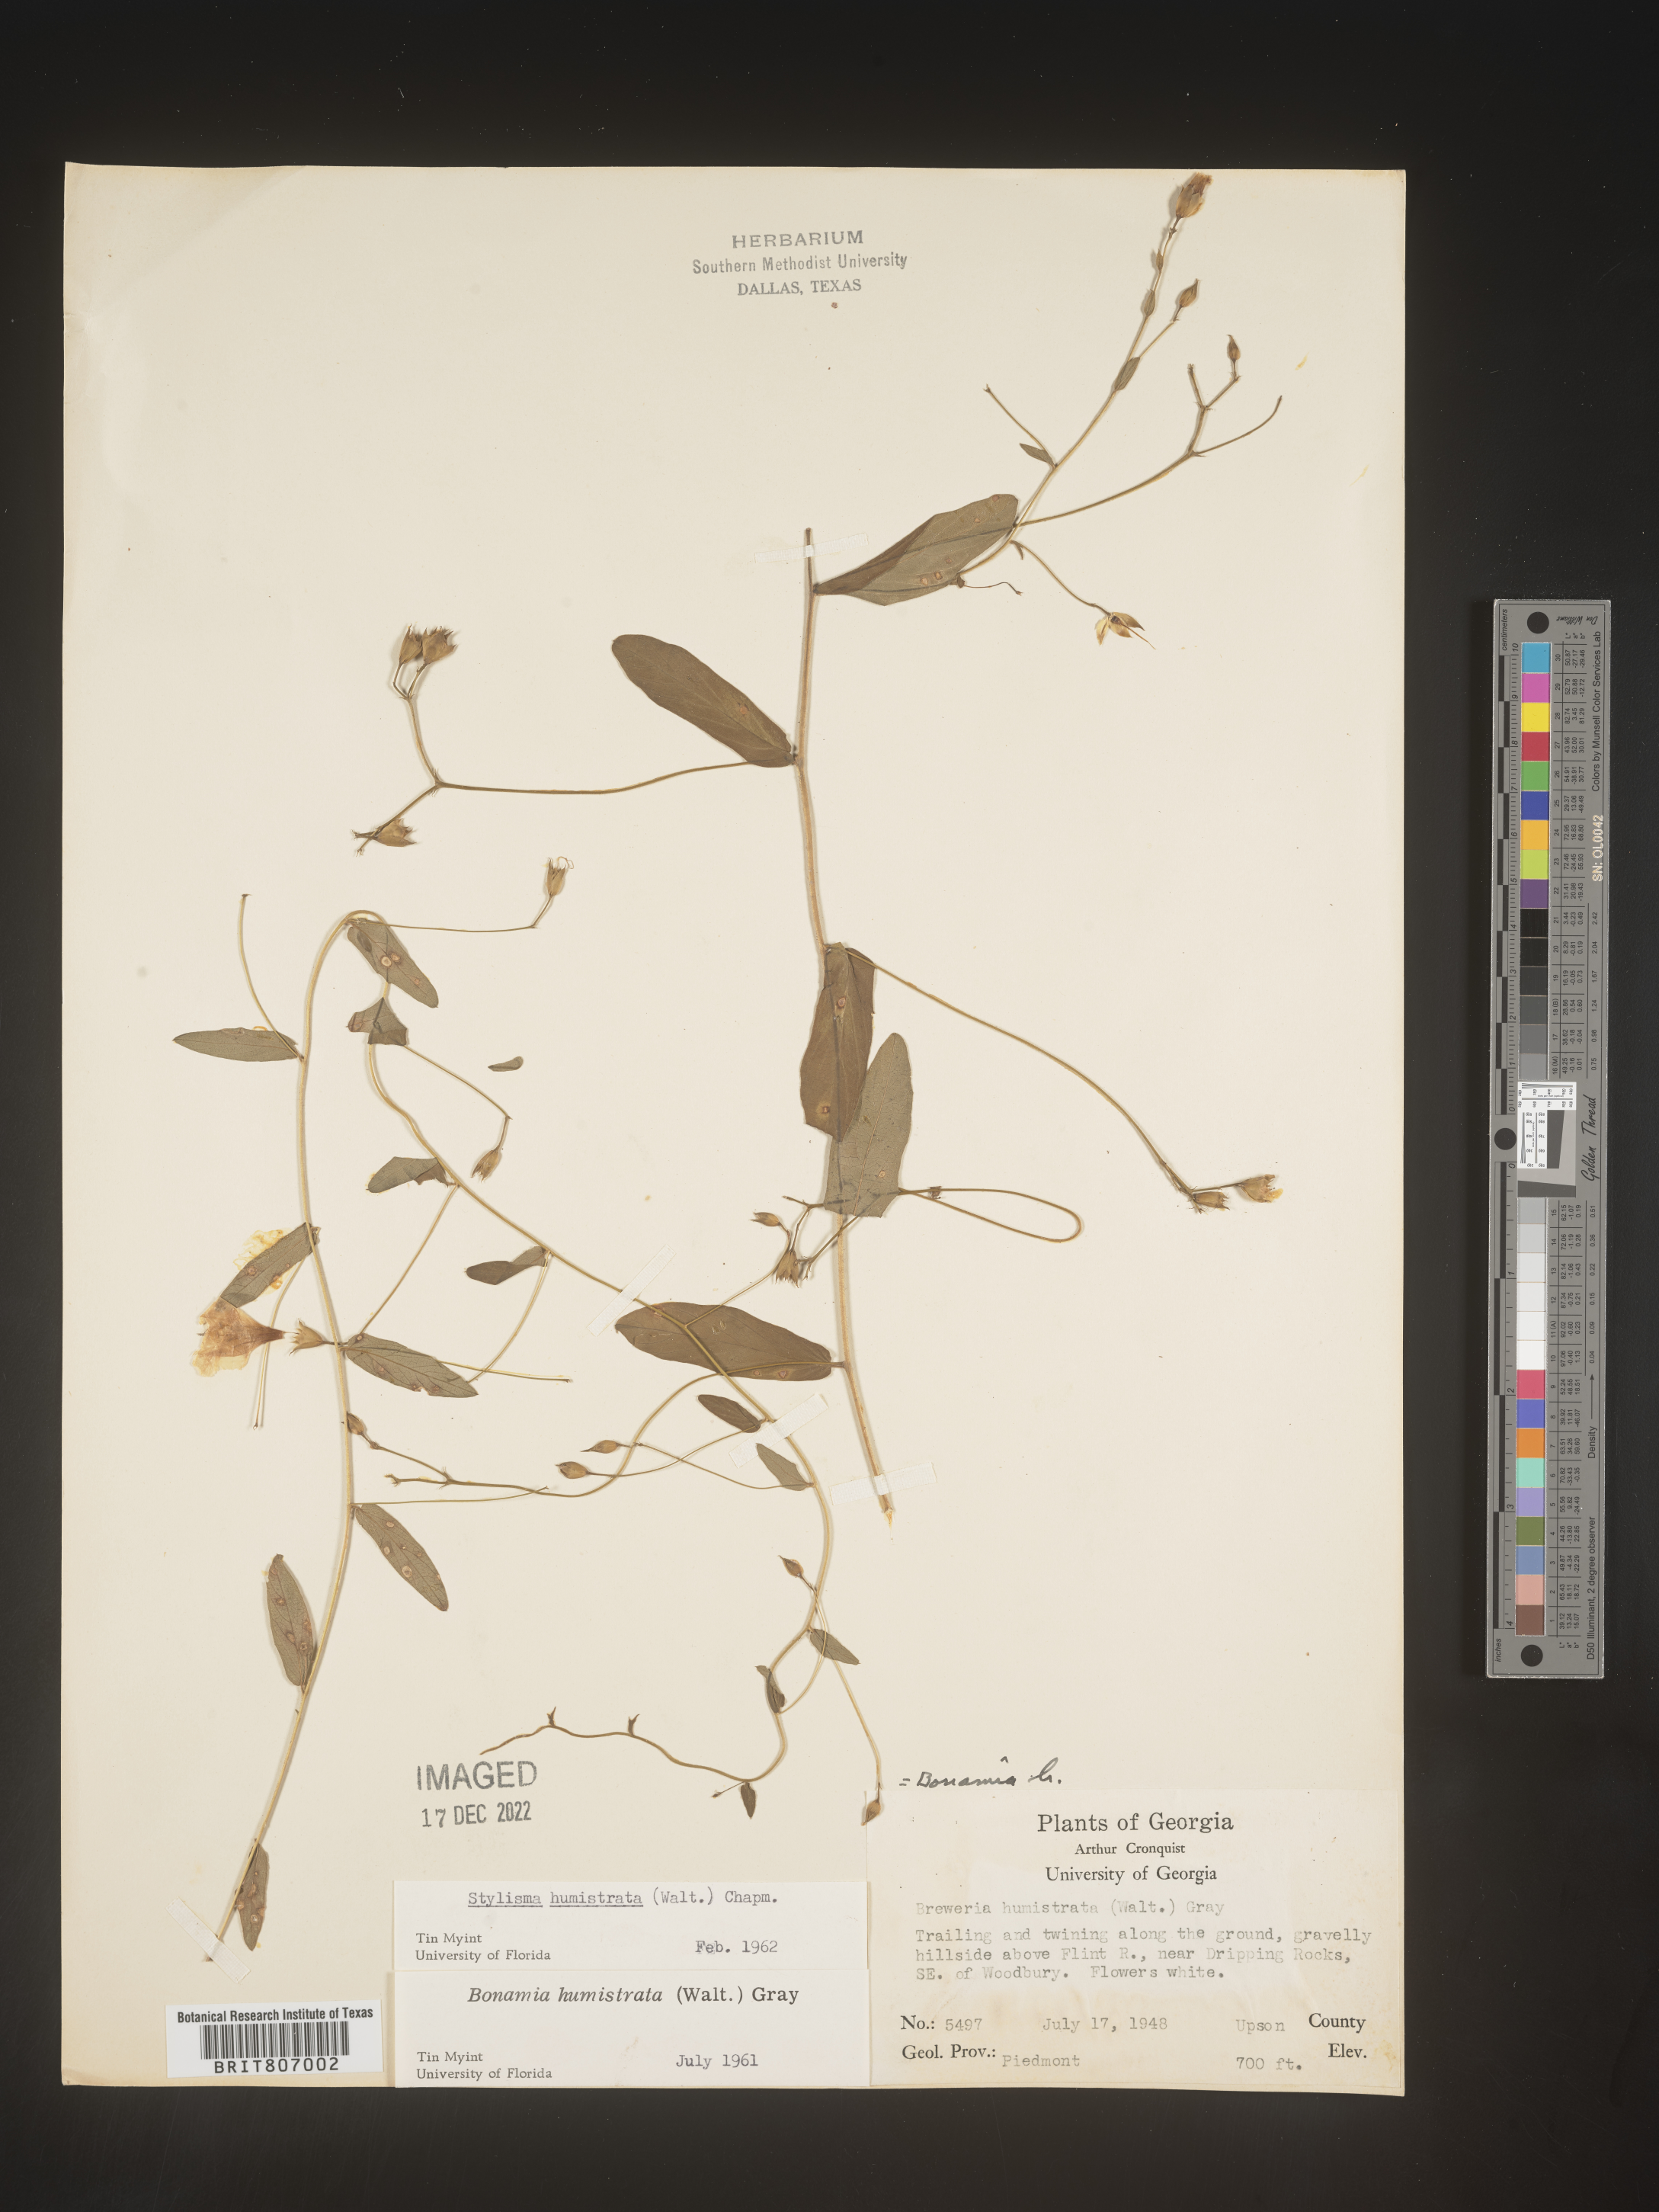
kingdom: Plantae
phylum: Tracheophyta
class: Magnoliopsida
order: Solanales
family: Convolvulaceae
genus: Stylisma
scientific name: Stylisma humistrata
